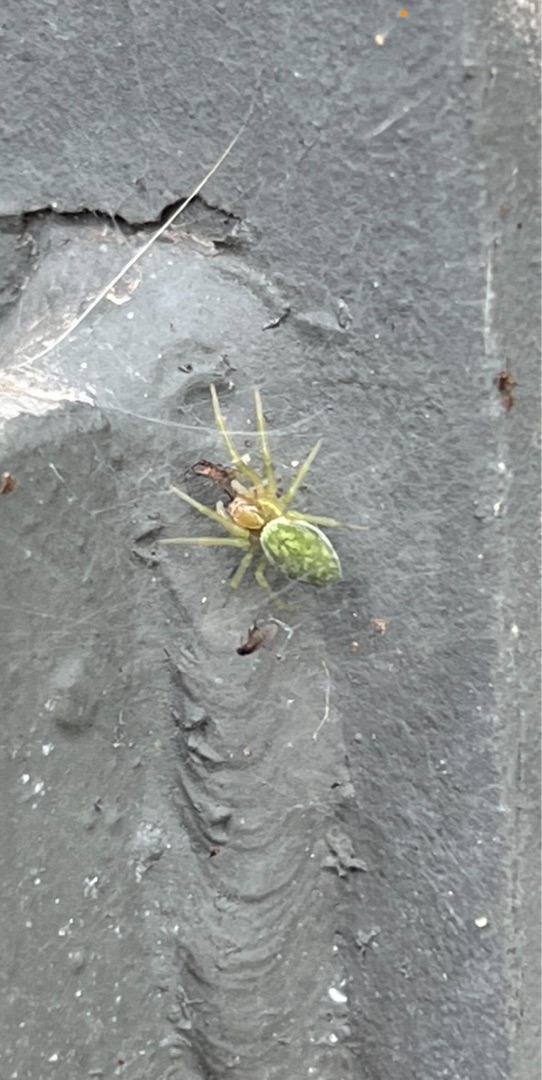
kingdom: Animalia
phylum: Arthropoda
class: Arachnida
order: Araneae
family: Dictynidae
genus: Nigma
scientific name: Nigma walckenaeri
